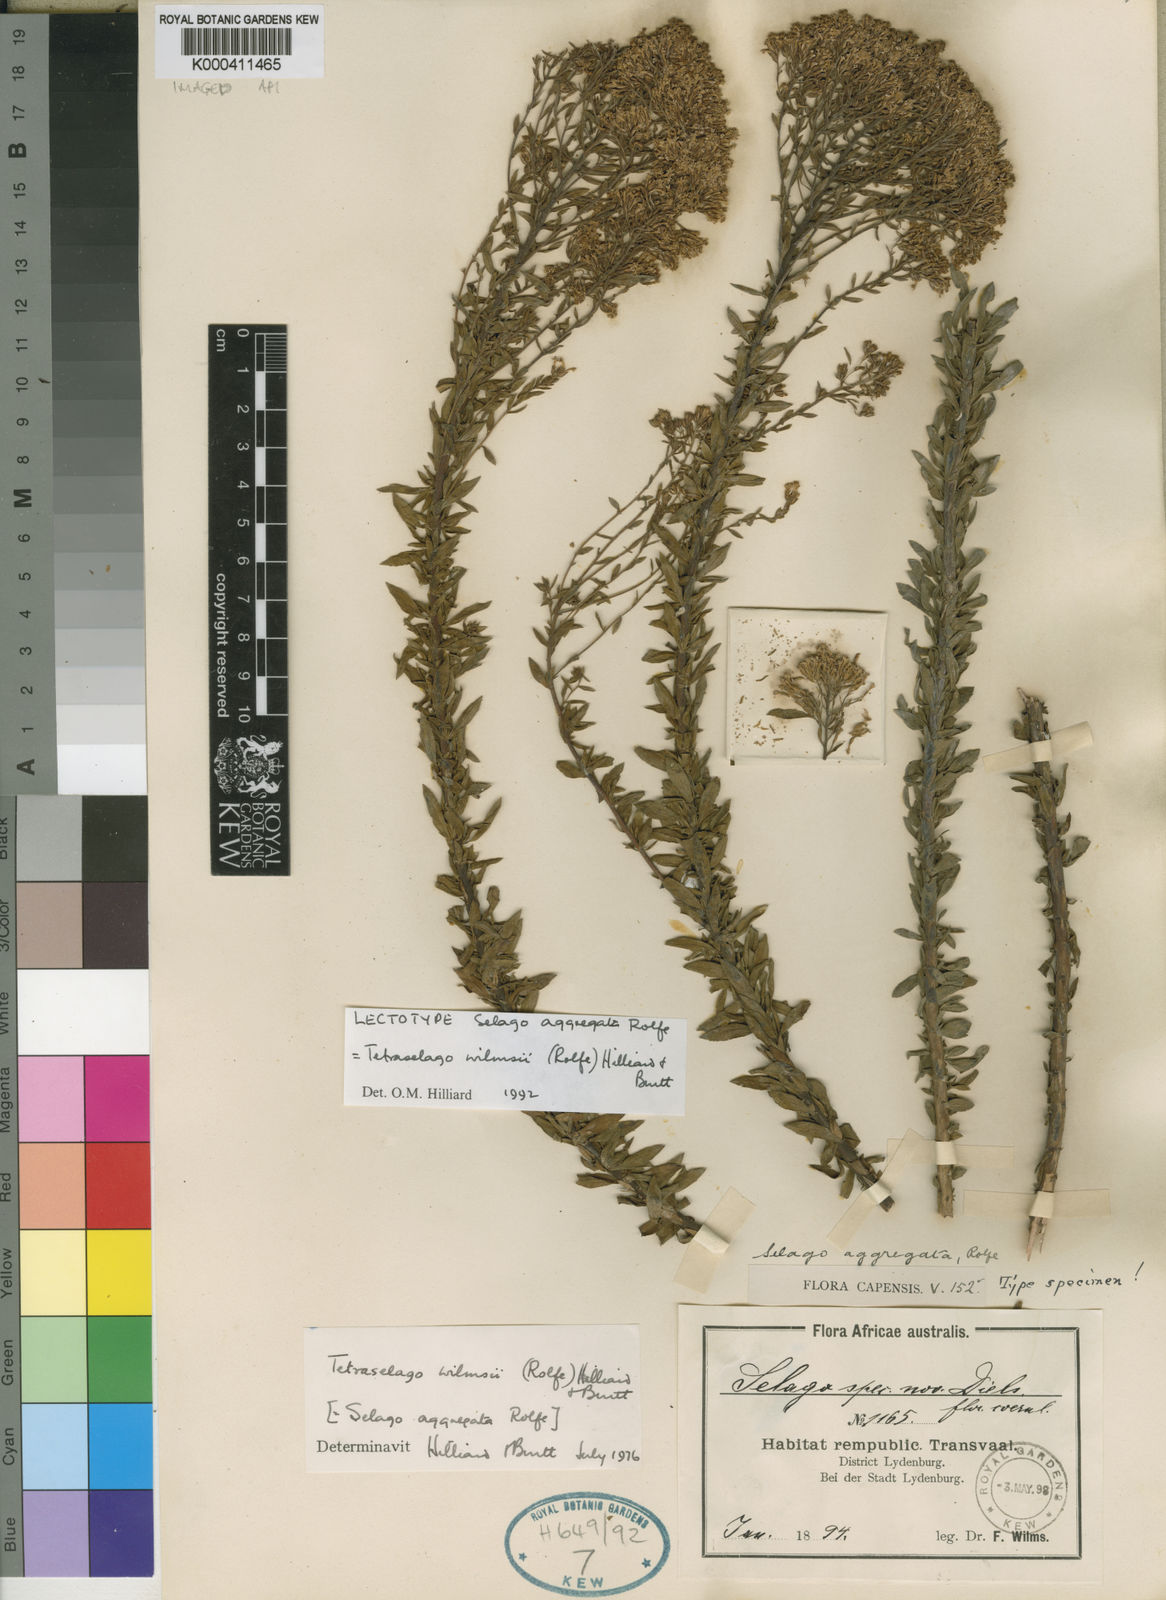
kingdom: Plantae
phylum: Tracheophyta
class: Magnoliopsida
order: Lamiales
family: Scrophulariaceae
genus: Tetraselago
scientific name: Tetraselago wilmsii
